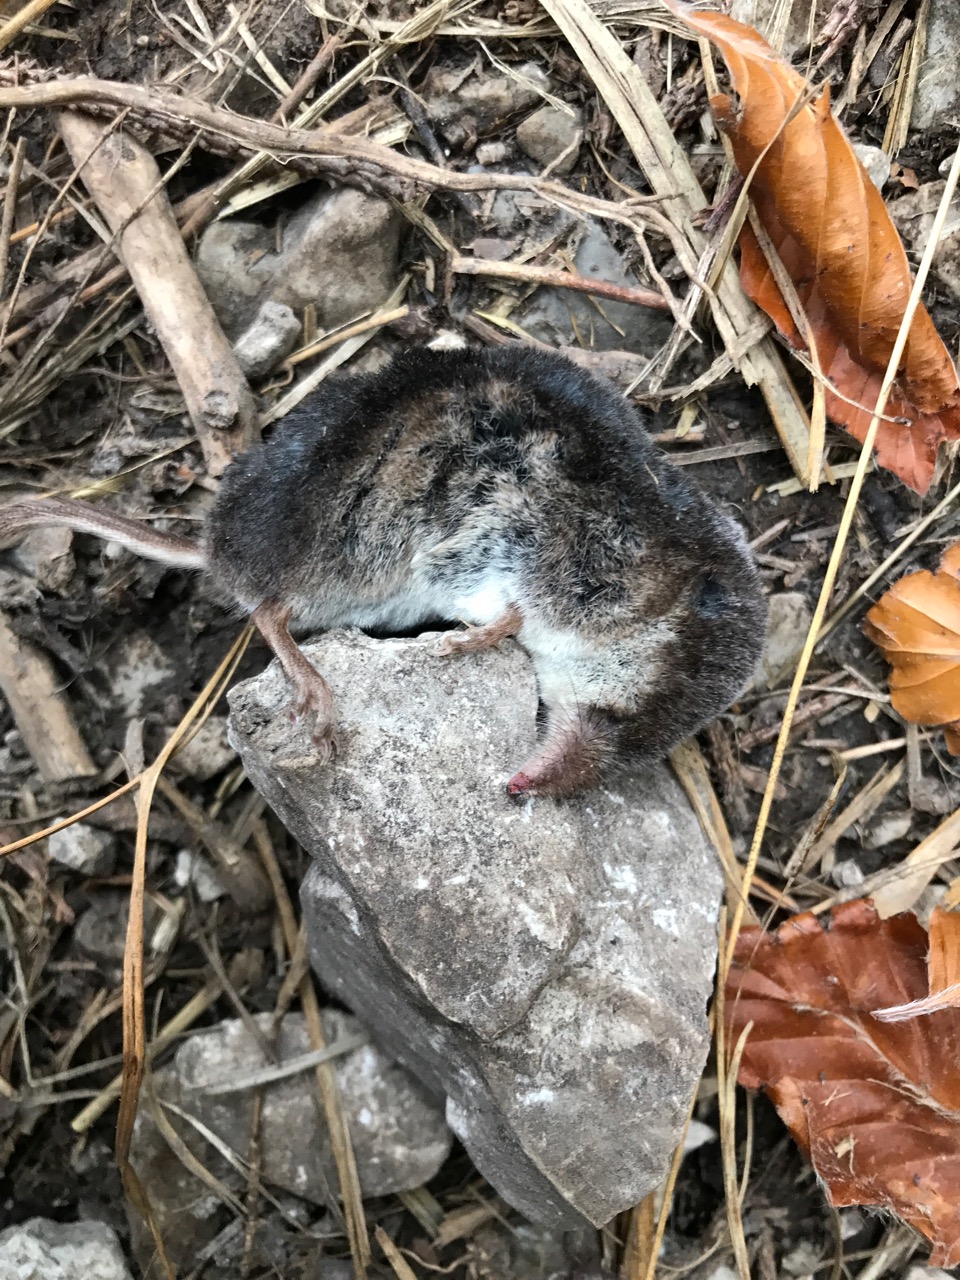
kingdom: Animalia
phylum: Chordata
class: Mammalia
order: Soricomorpha
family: Soricidae
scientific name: Soricidae
